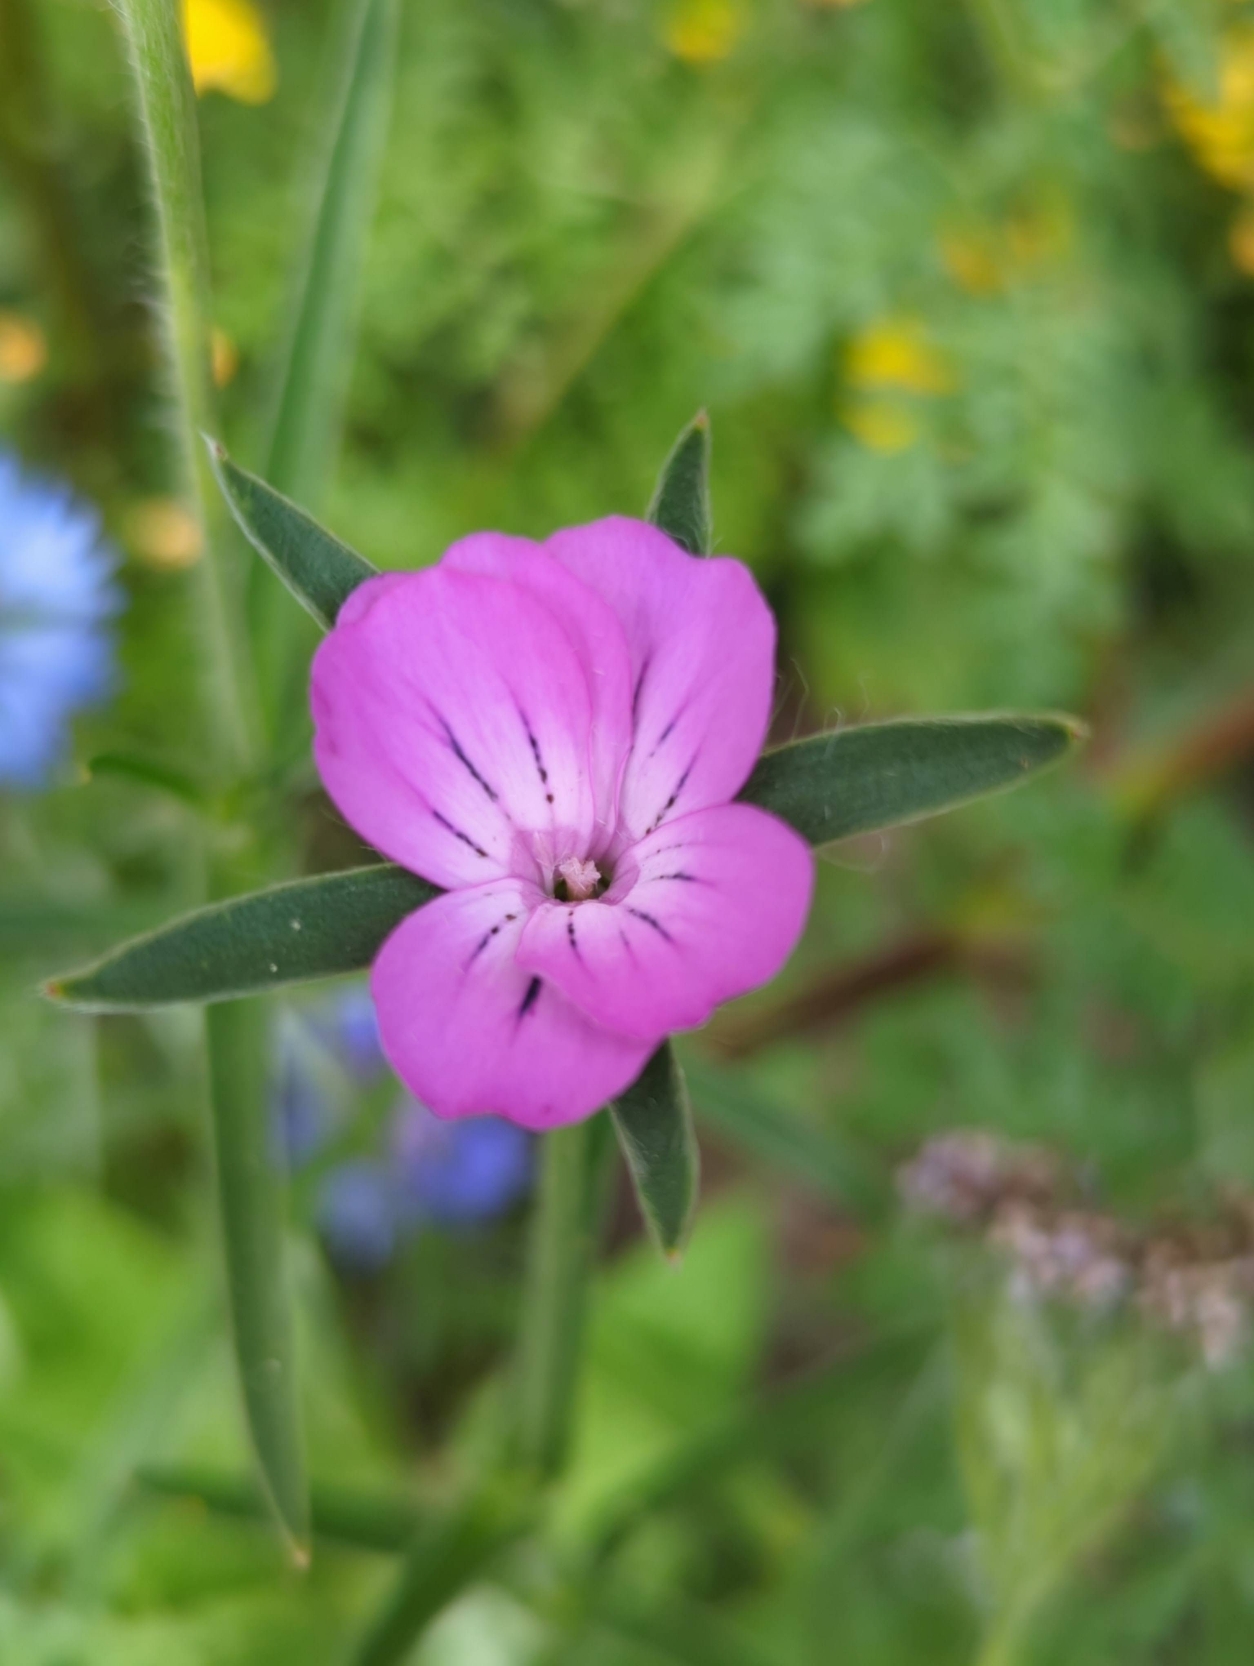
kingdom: Plantae
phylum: Tracheophyta
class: Magnoliopsida
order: Caryophyllales
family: Caryophyllaceae
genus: Agrostemma
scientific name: Agrostemma githago
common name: Klinte
